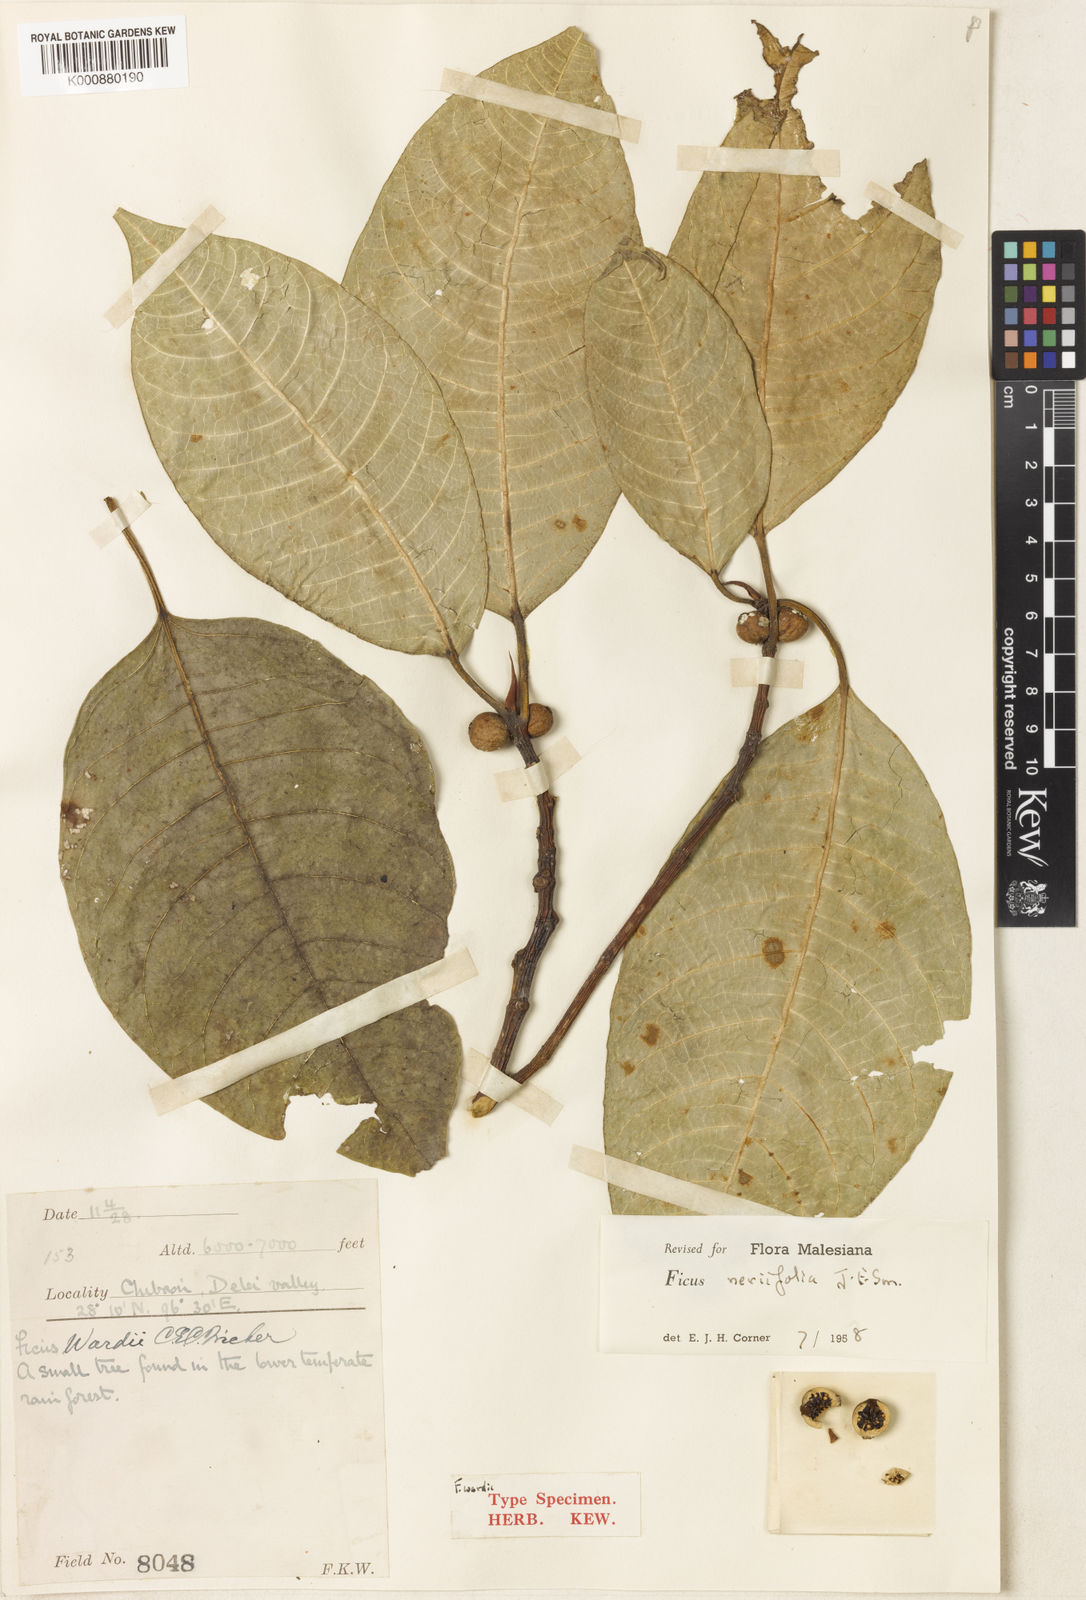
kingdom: Plantae
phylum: Tracheophyta
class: Magnoliopsida
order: Rosales
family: Moraceae
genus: Ficus
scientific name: Ficus neriifolia
